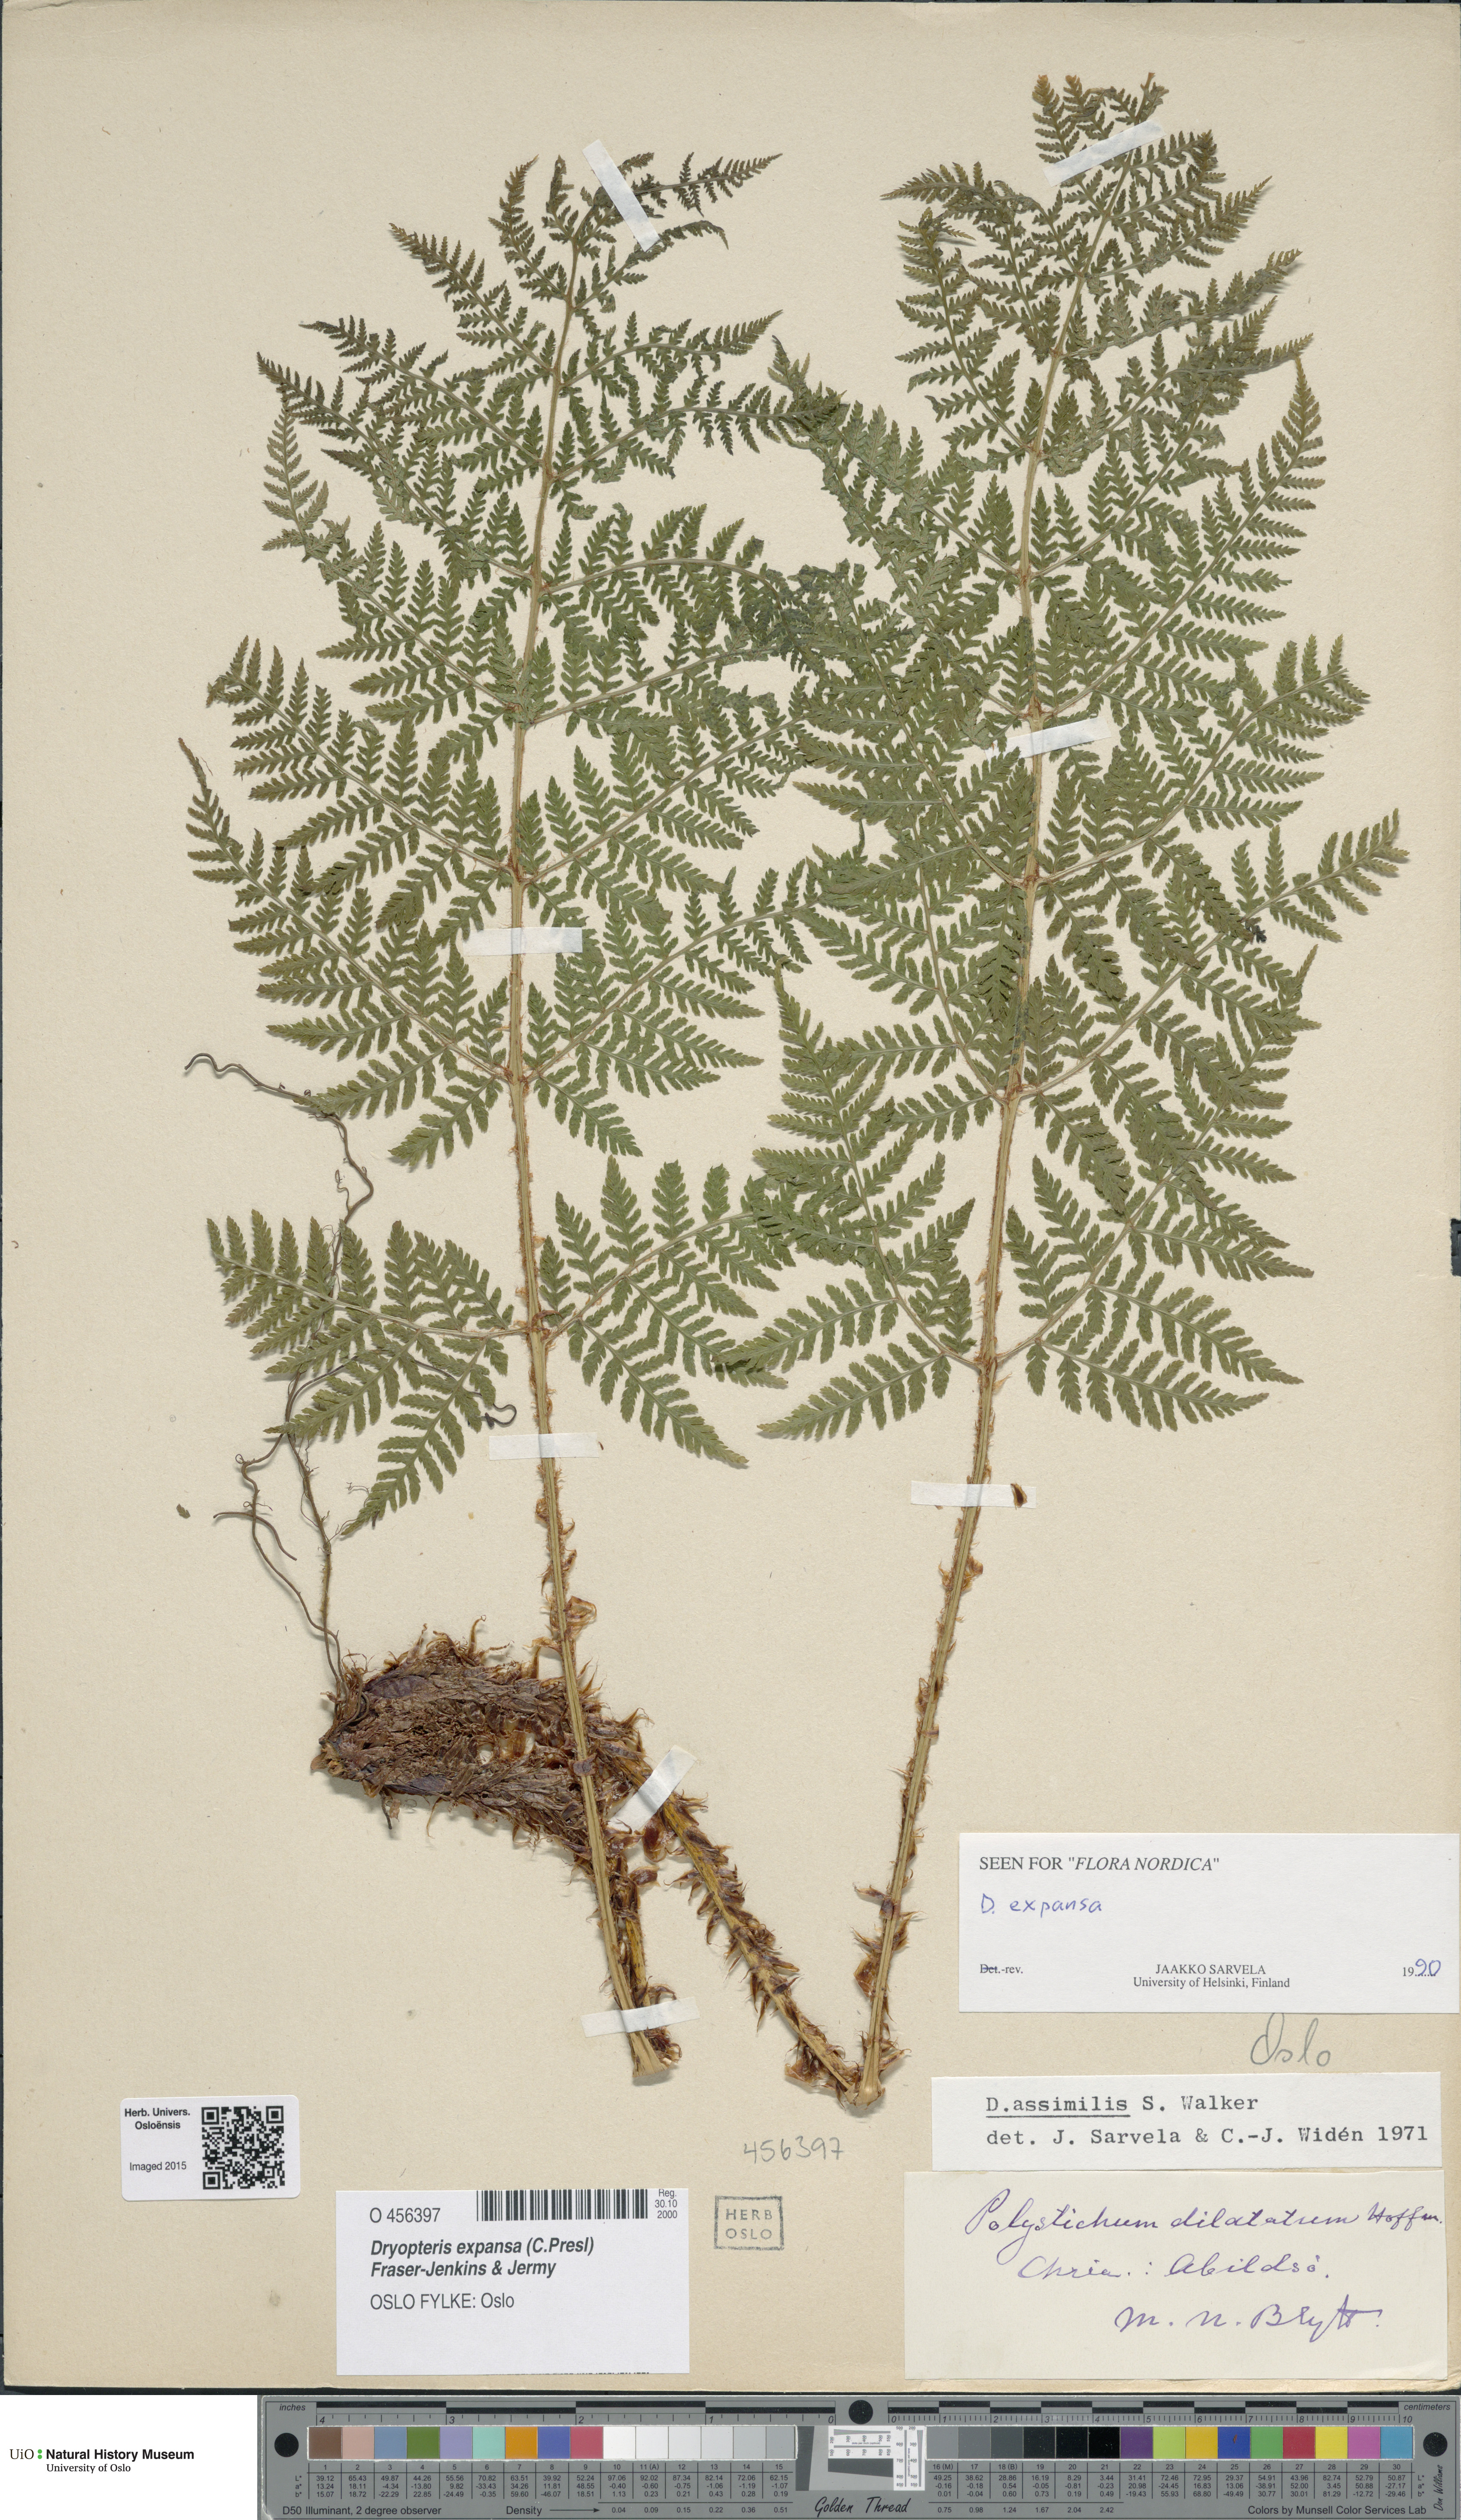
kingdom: Plantae
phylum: Tracheophyta
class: Polypodiopsida
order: Polypodiales
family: Dryopteridaceae
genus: Dryopteris
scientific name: Dryopteris expansa
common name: Northern buckler fern
